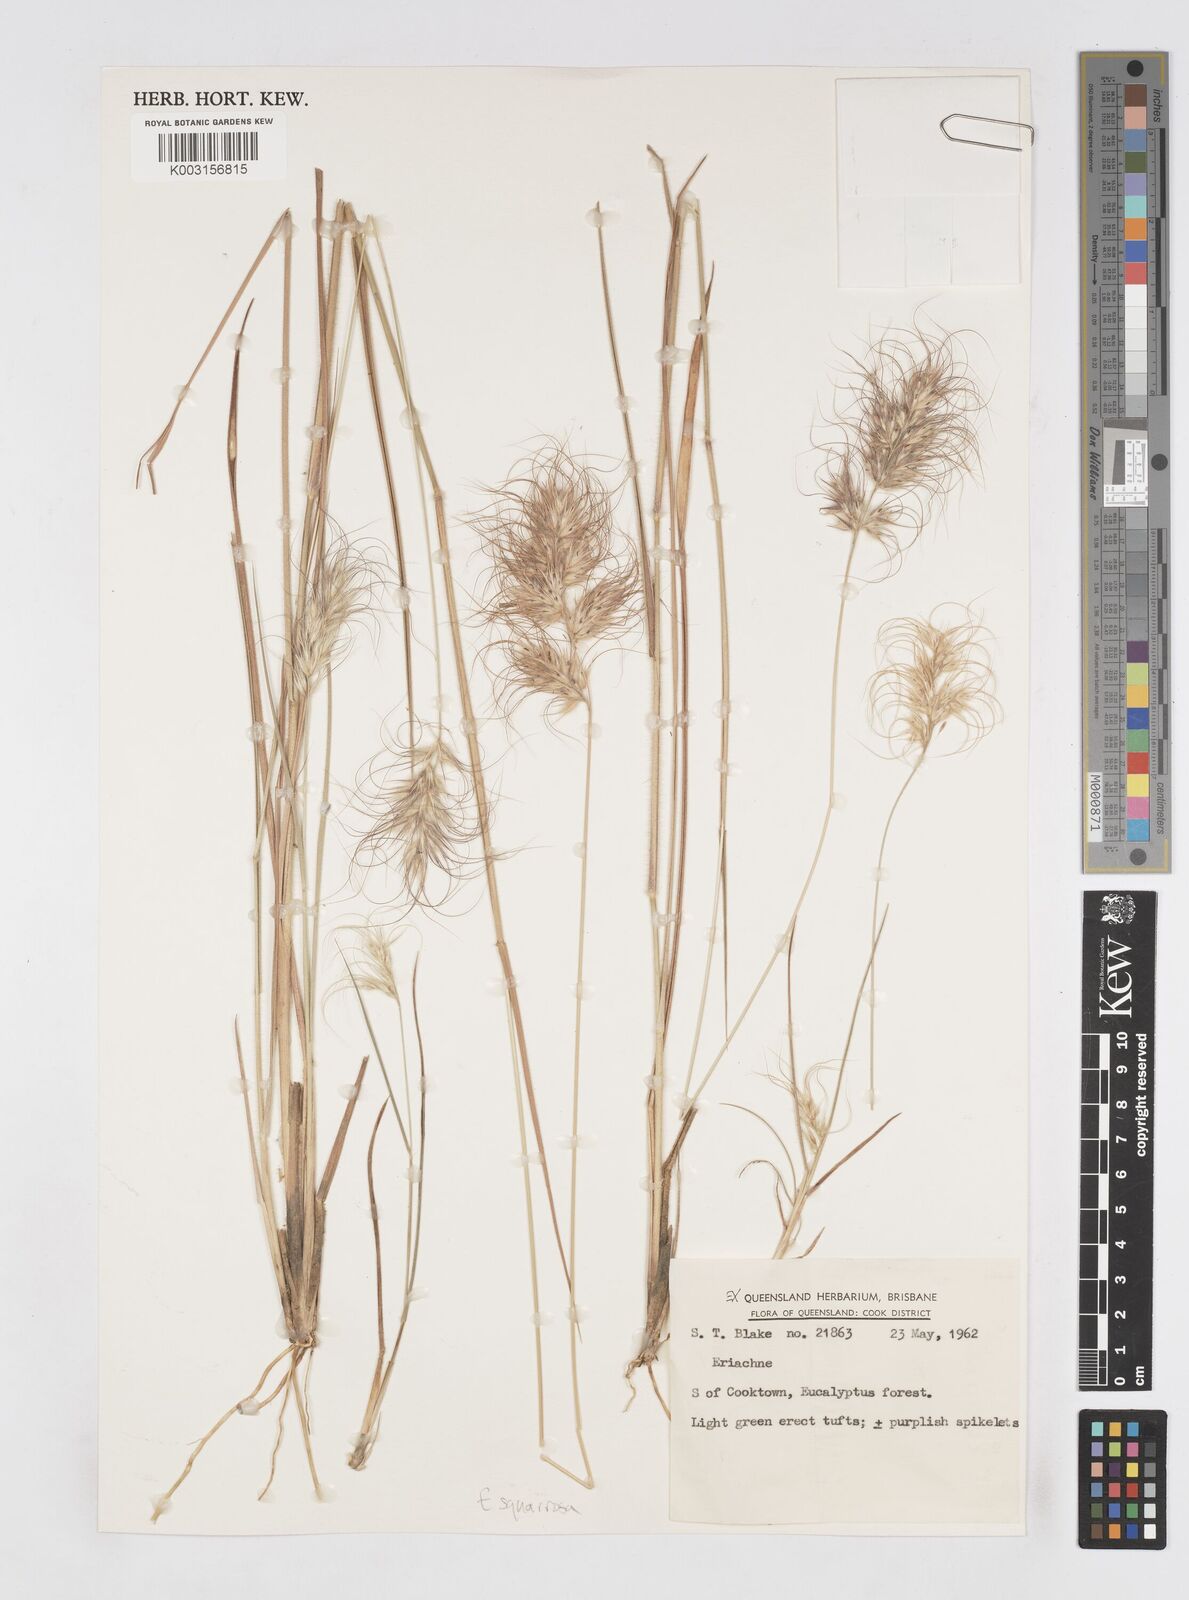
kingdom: Plantae
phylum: Tracheophyta
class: Liliopsida
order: Poales
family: Poaceae
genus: Eriachne
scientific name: Eriachne squarrosa
